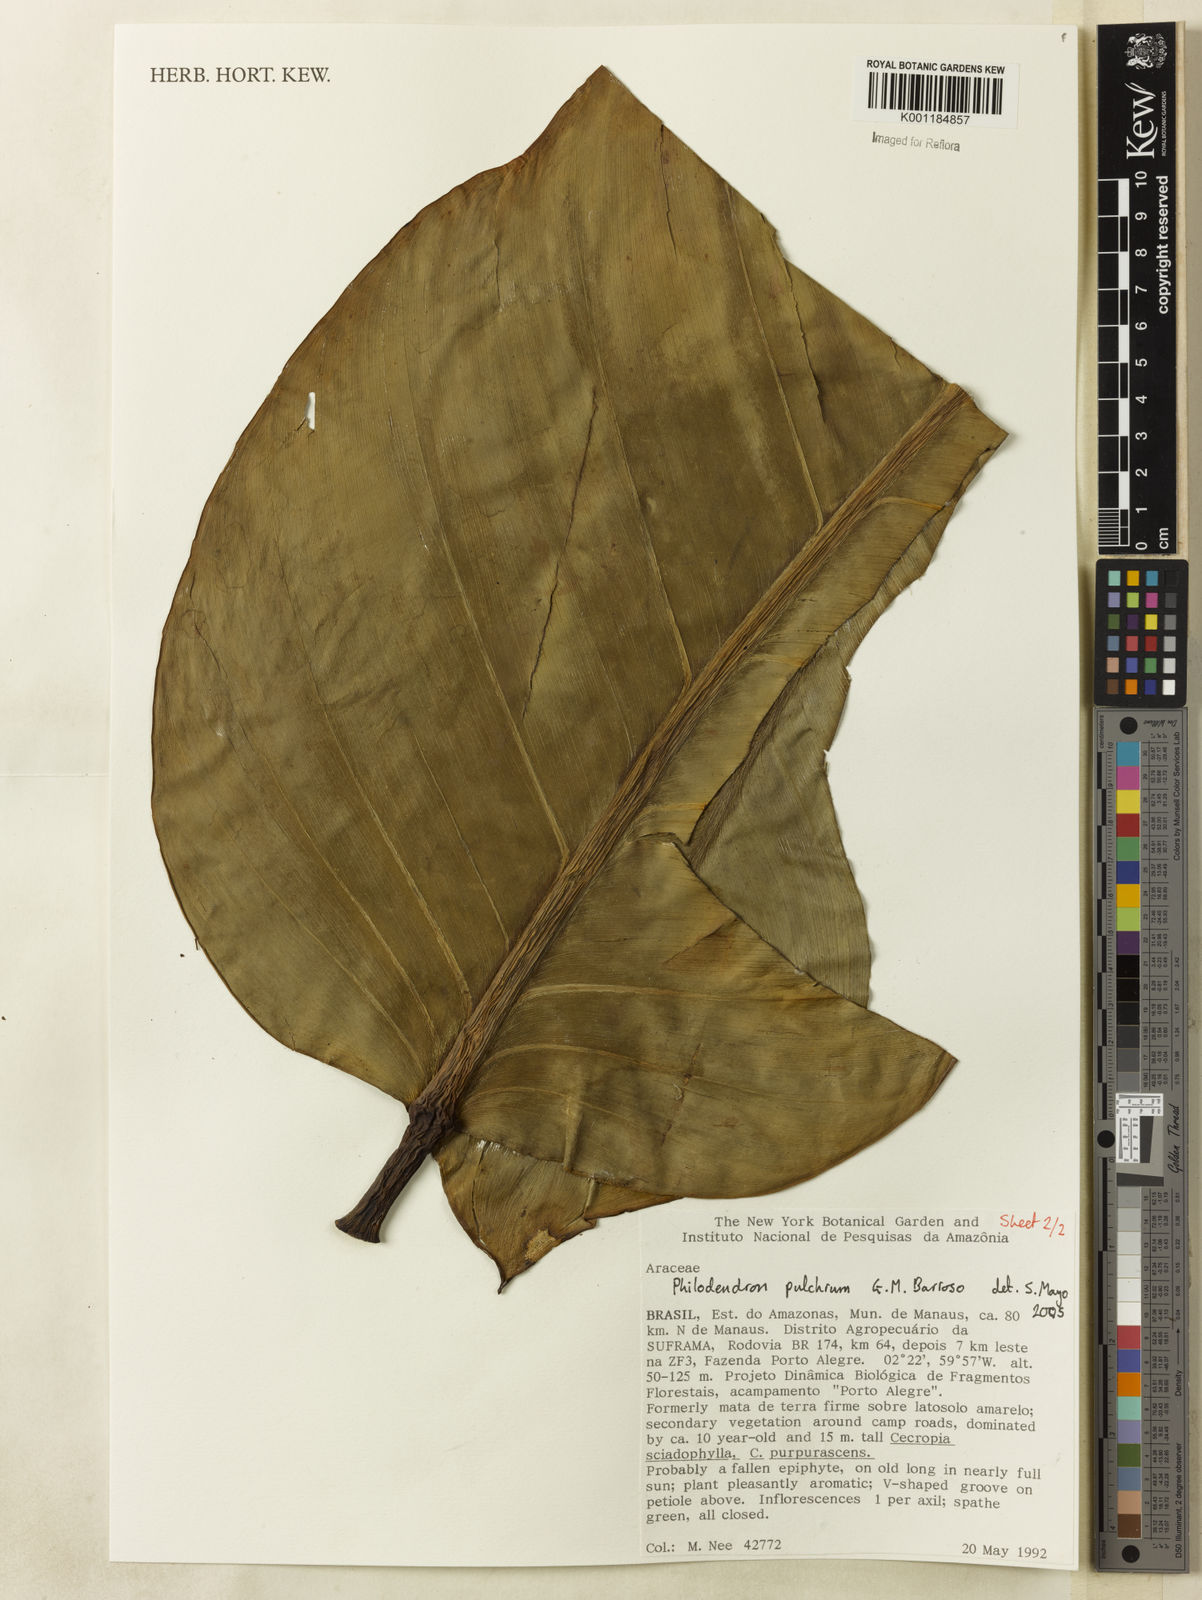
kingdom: Plantae
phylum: Tracheophyta
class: Liliopsida
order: Alismatales
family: Araceae
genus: Philodendron
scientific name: Philodendron pulchrum
